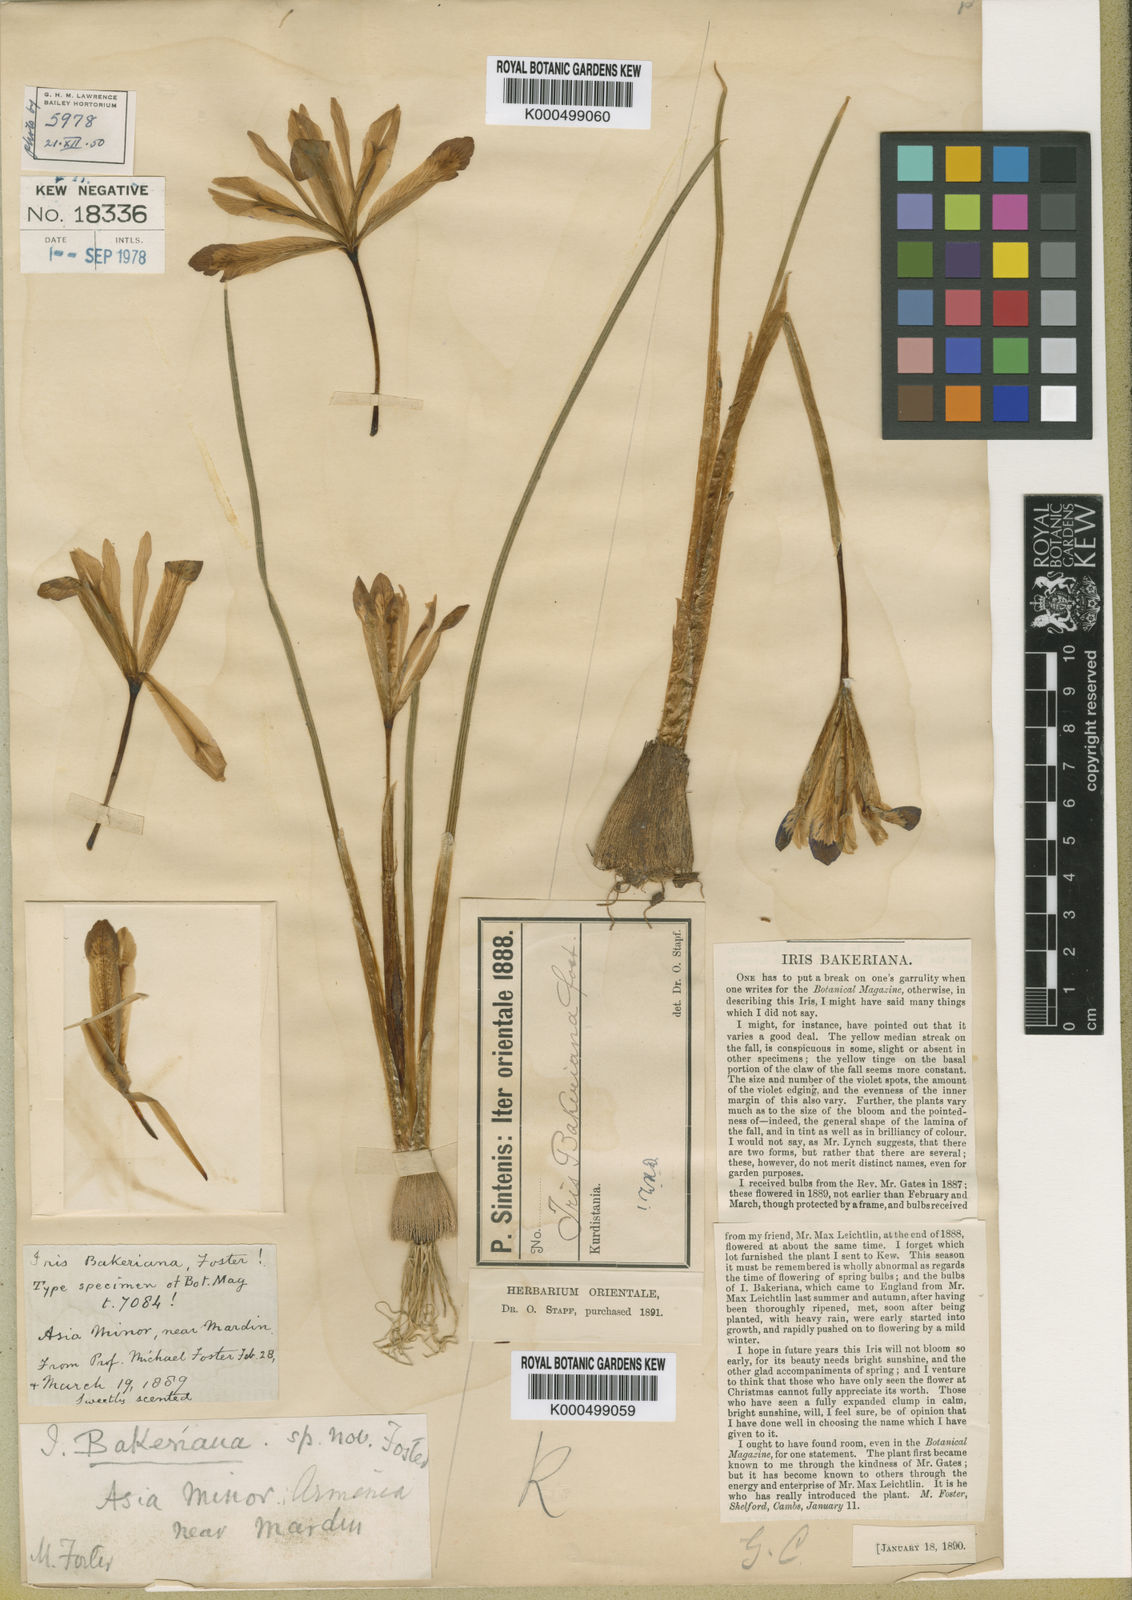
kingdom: Plantae
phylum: Tracheophyta
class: Liliopsida
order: Asparagales
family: Iridaceae
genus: Iris
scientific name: Iris reticulata
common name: Netted iris
